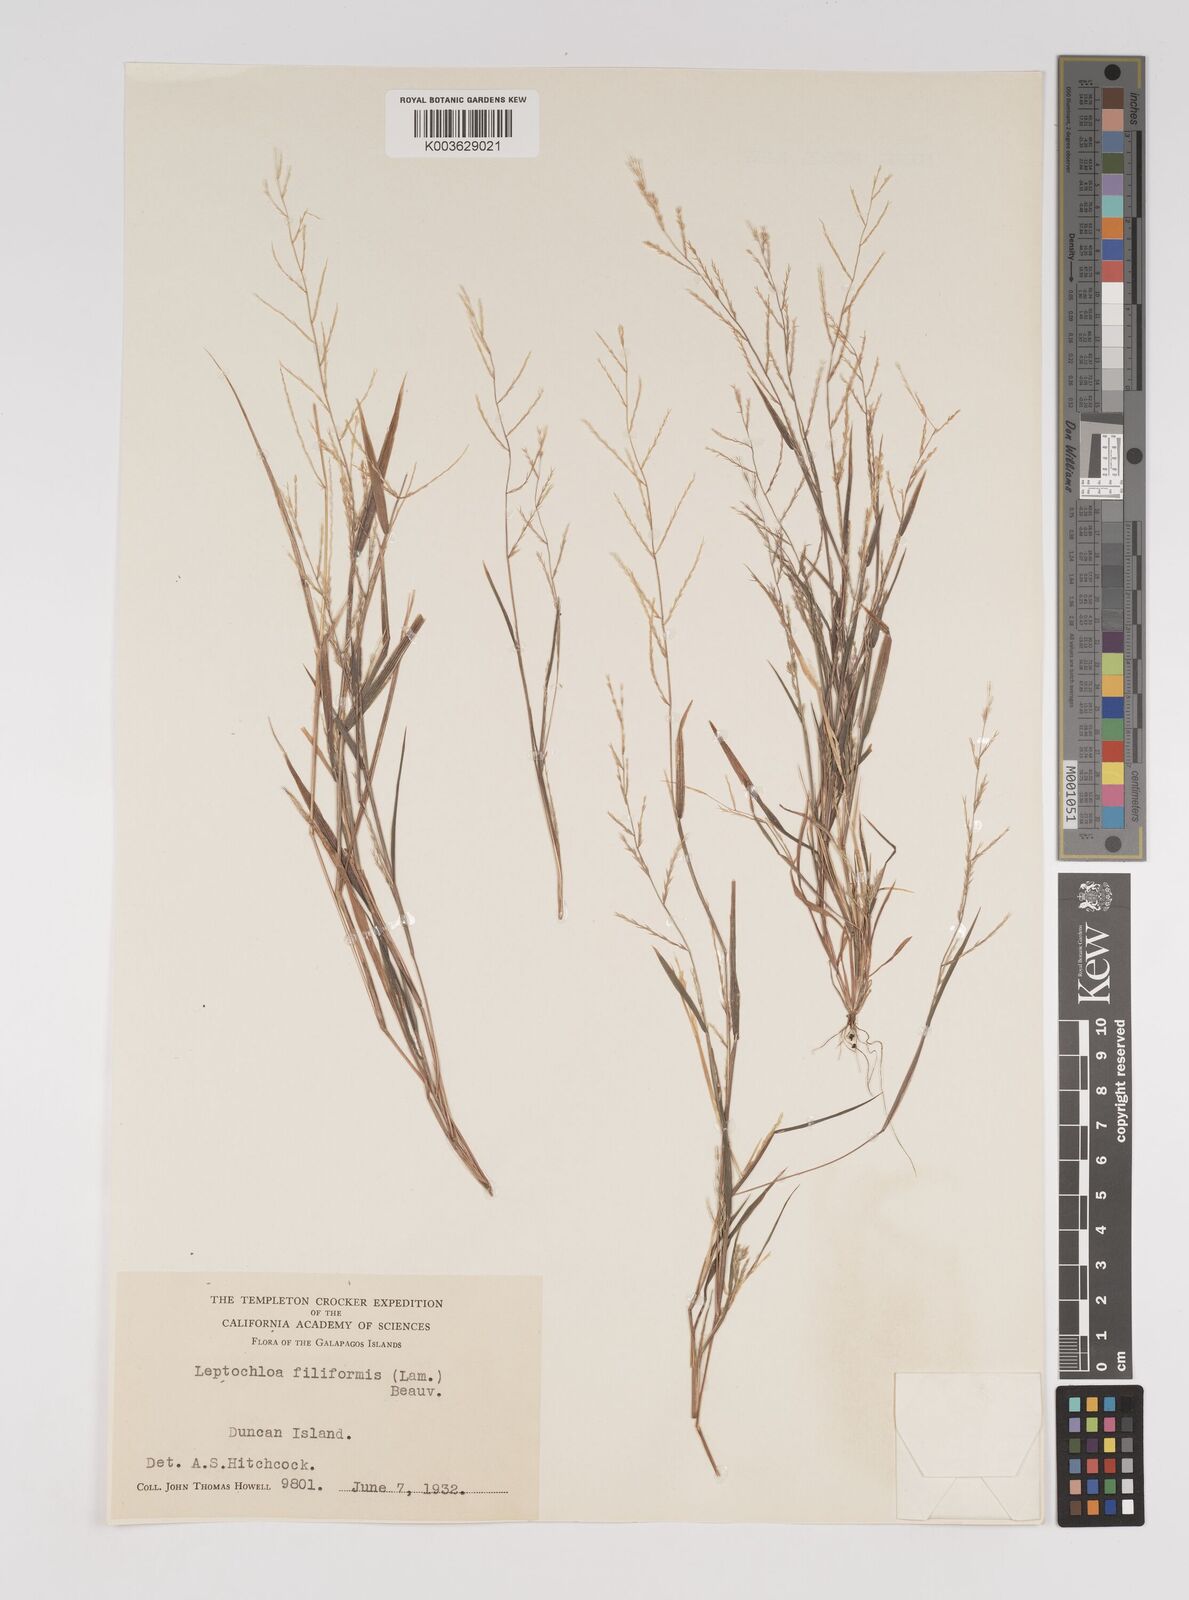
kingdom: Plantae
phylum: Tracheophyta
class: Liliopsida
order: Poales
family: Poaceae
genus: Leptochloa
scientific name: Leptochloa panicea
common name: Mucronate sprangletop
